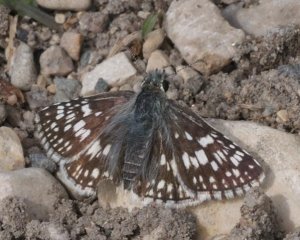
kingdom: Animalia
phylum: Arthropoda
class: Insecta
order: Lepidoptera
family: Hesperiidae
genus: Pyrgus
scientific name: Pyrgus communis
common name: Common Checkered-Skipper
